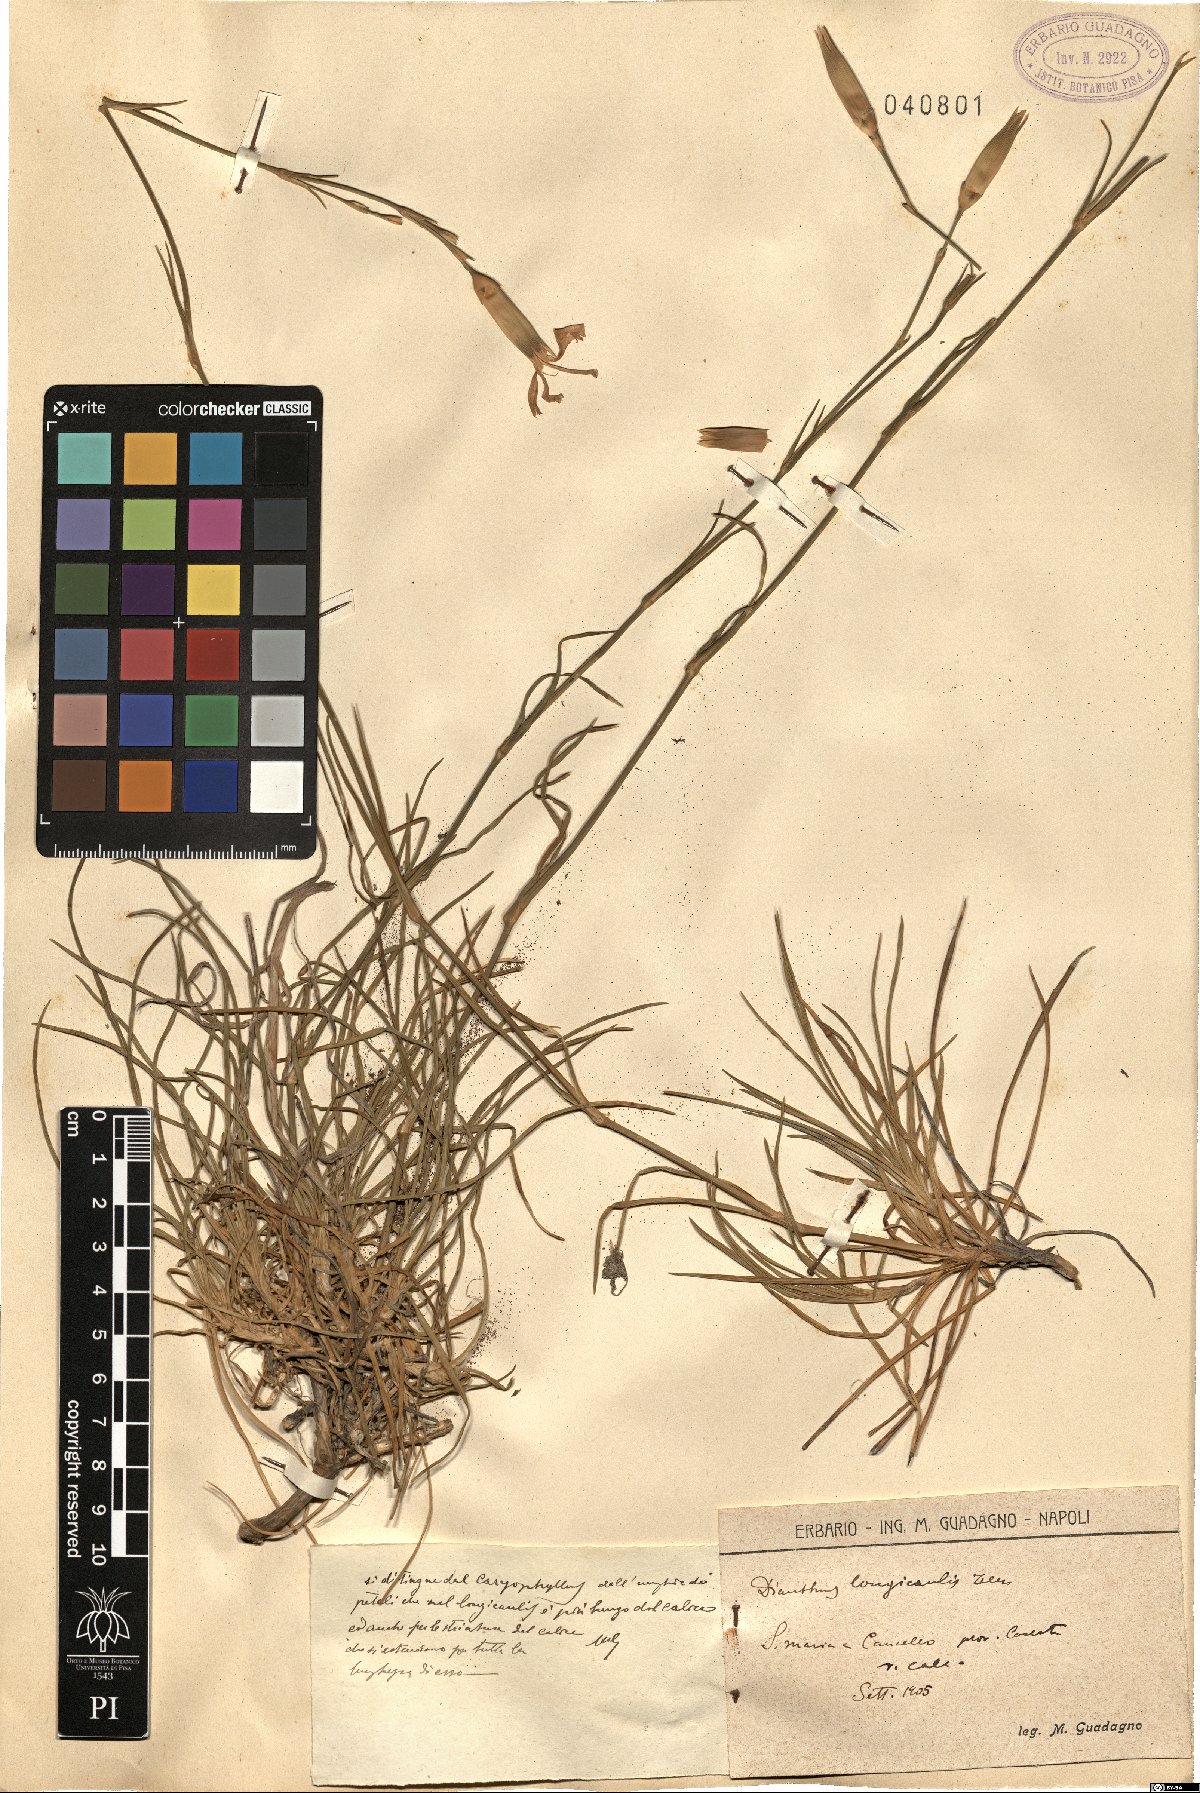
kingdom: Plantae
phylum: Tracheophyta
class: Magnoliopsida
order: Caryophyllales
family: Caryophyllaceae
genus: Dianthus
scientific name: Dianthus virgineus
